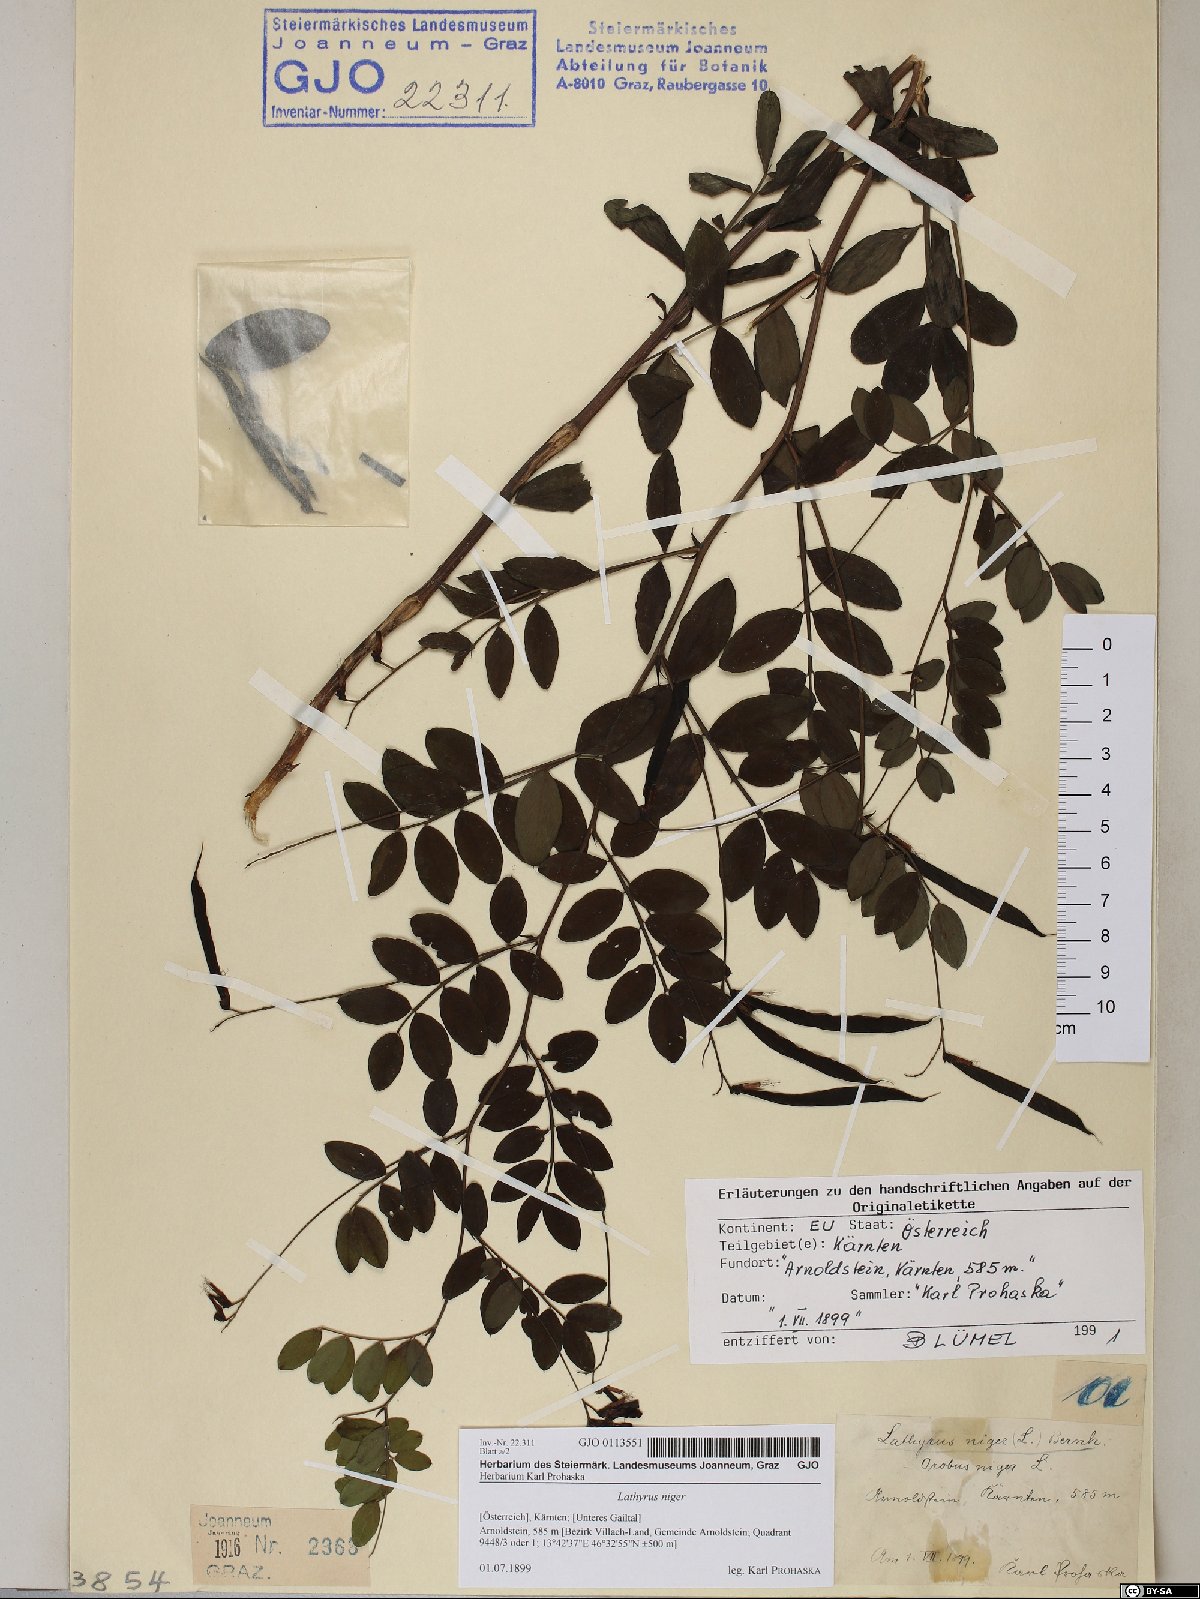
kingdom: Plantae
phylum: Tracheophyta
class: Magnoliopsida
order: Fabales
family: Fabaceae
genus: Lathyrus
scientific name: Lathyrus niger
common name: Black pea
